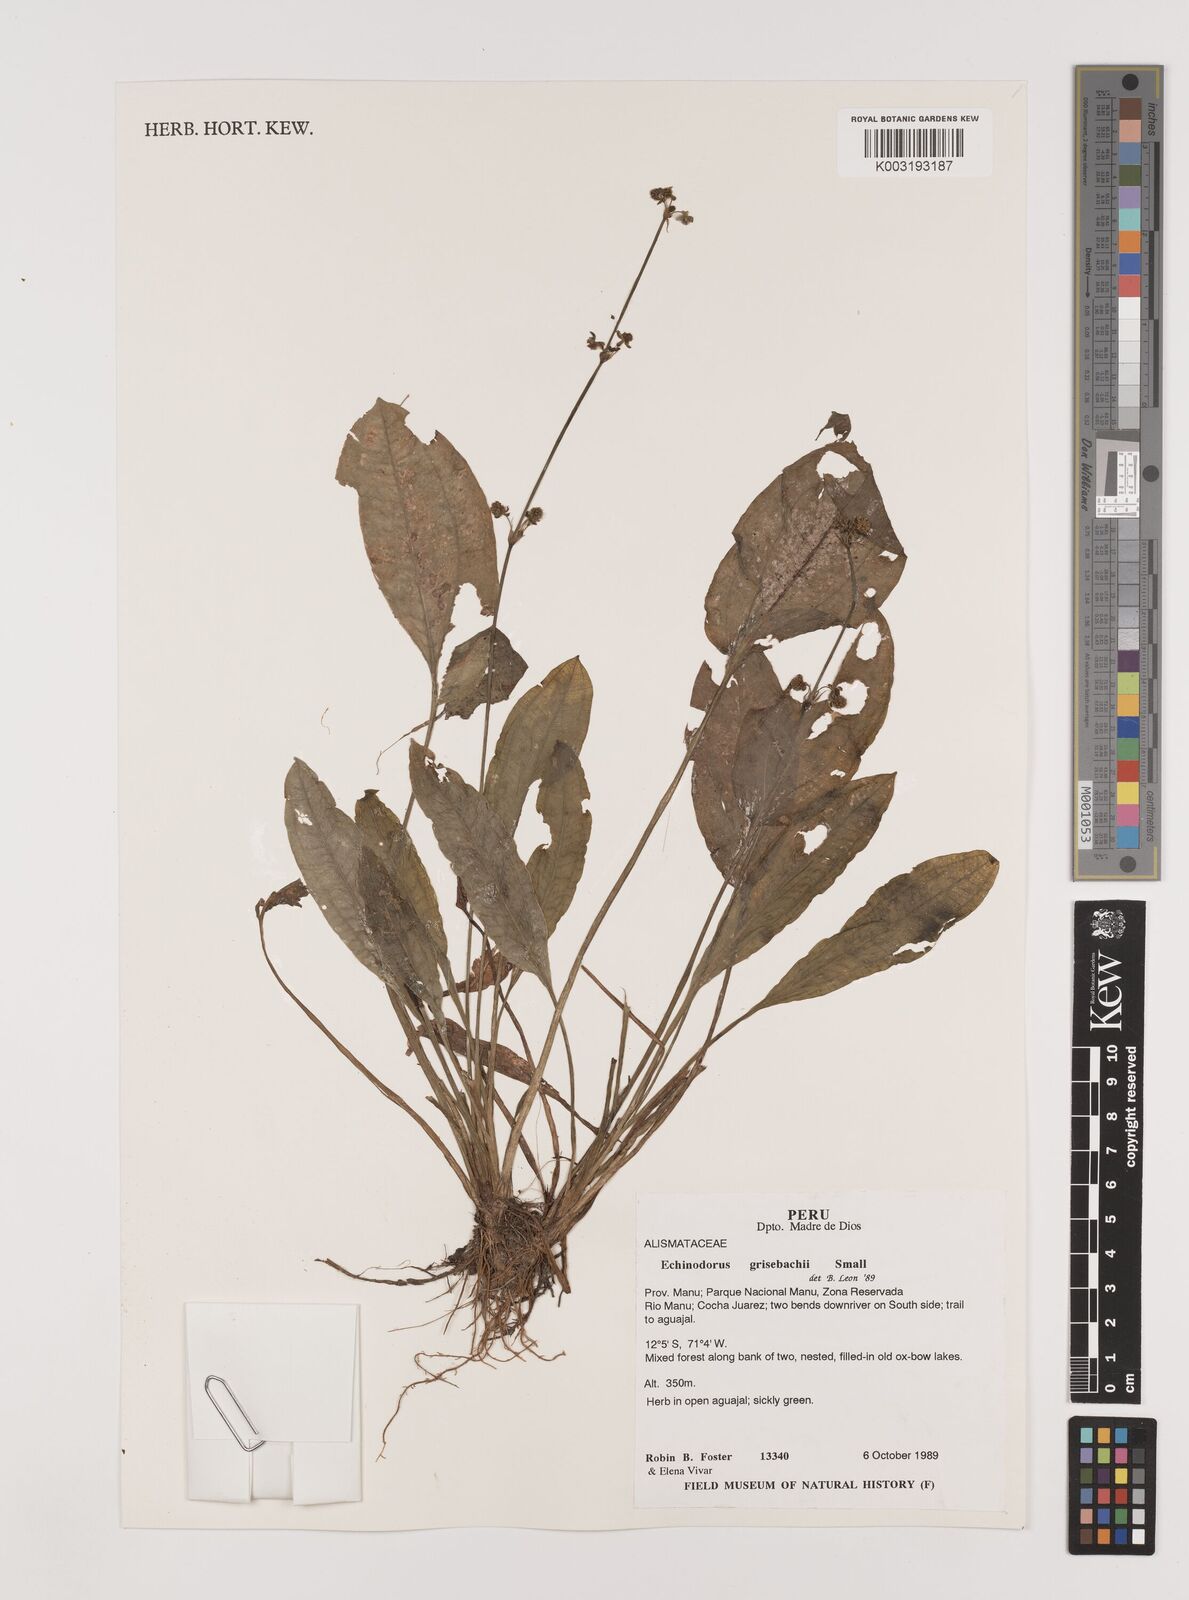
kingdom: Plantae
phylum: Tracheophyta
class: Liliopsida
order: Alismatales
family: Alismataceae
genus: Aquarius
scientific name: Aquarius grisebachii
